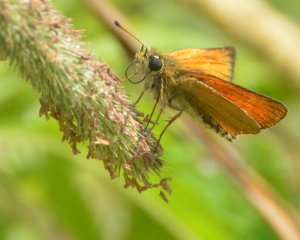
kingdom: Animalia
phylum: Arthropoda
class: Insecta
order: Lepidoptera
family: Hesperiidae
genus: Thymelicus
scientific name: Thymelicus lineola
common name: European Skipper
